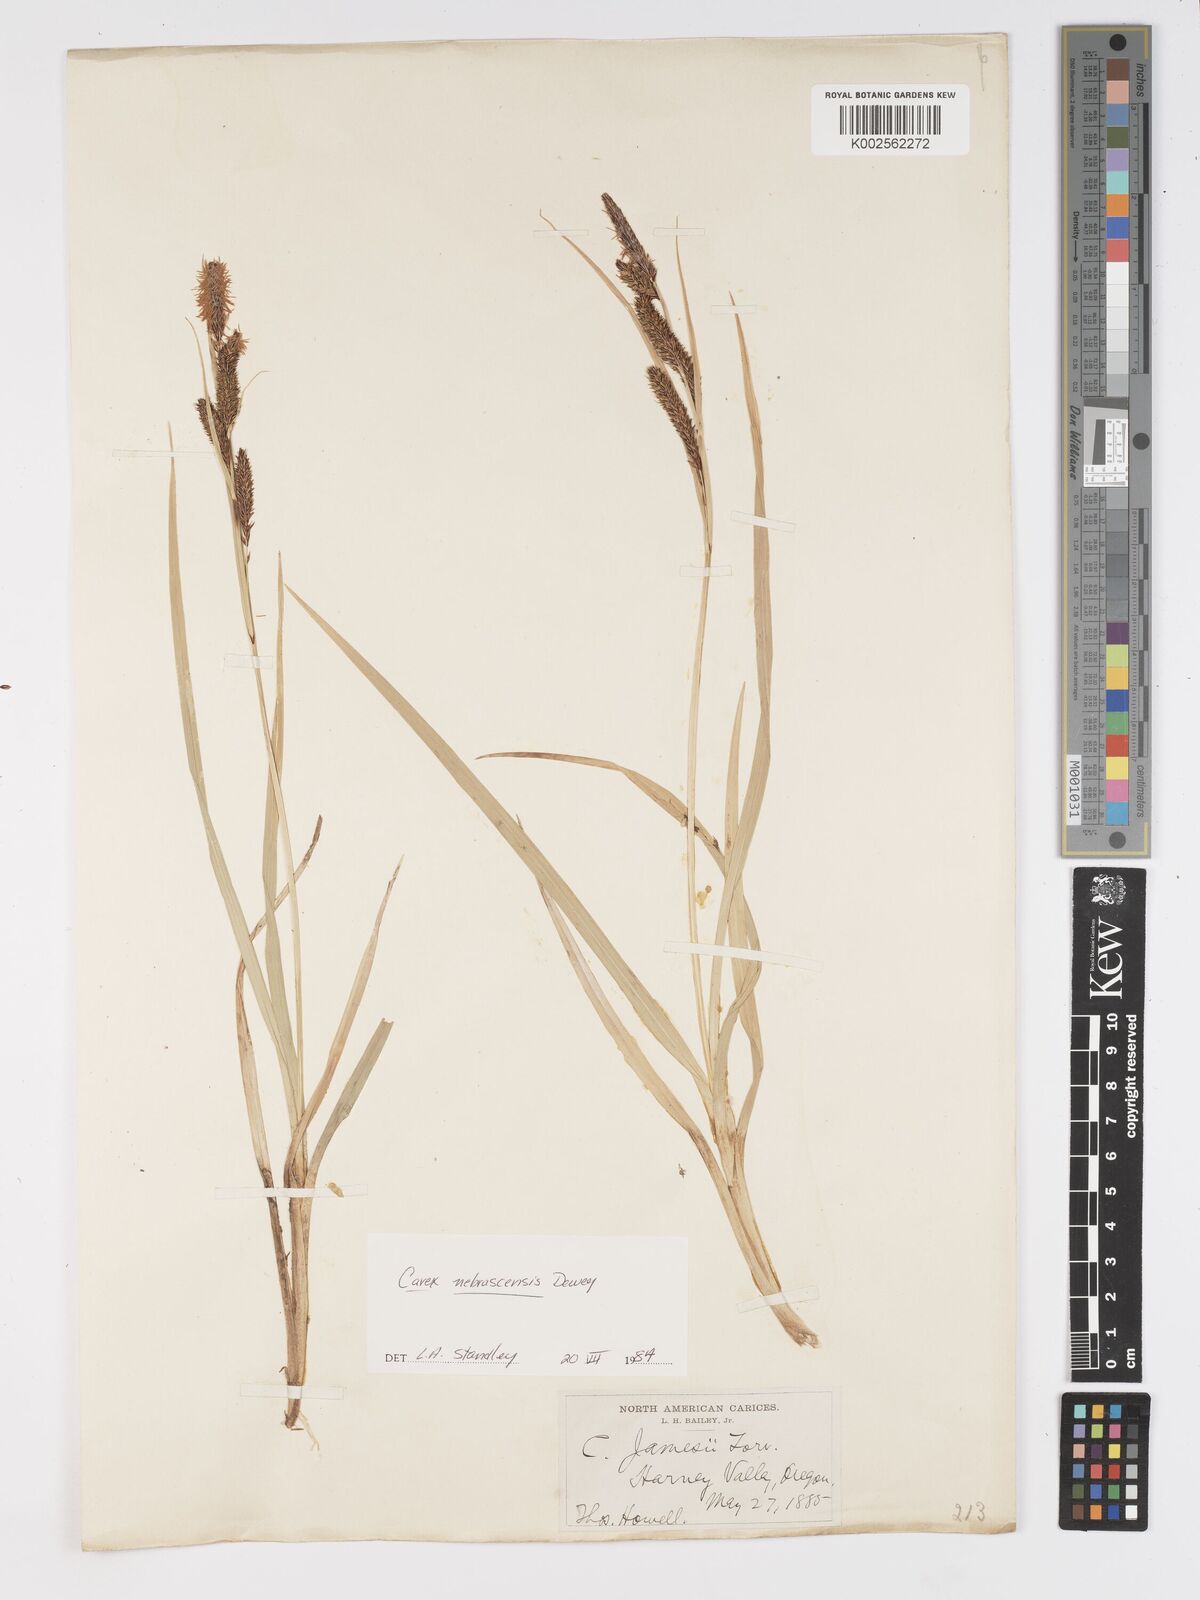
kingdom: Plantae
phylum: Tracheophyta
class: Liliopsida
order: Poales
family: Cyperaceae
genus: Carex
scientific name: Carex nebrascensis
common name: Nebraska sedge
